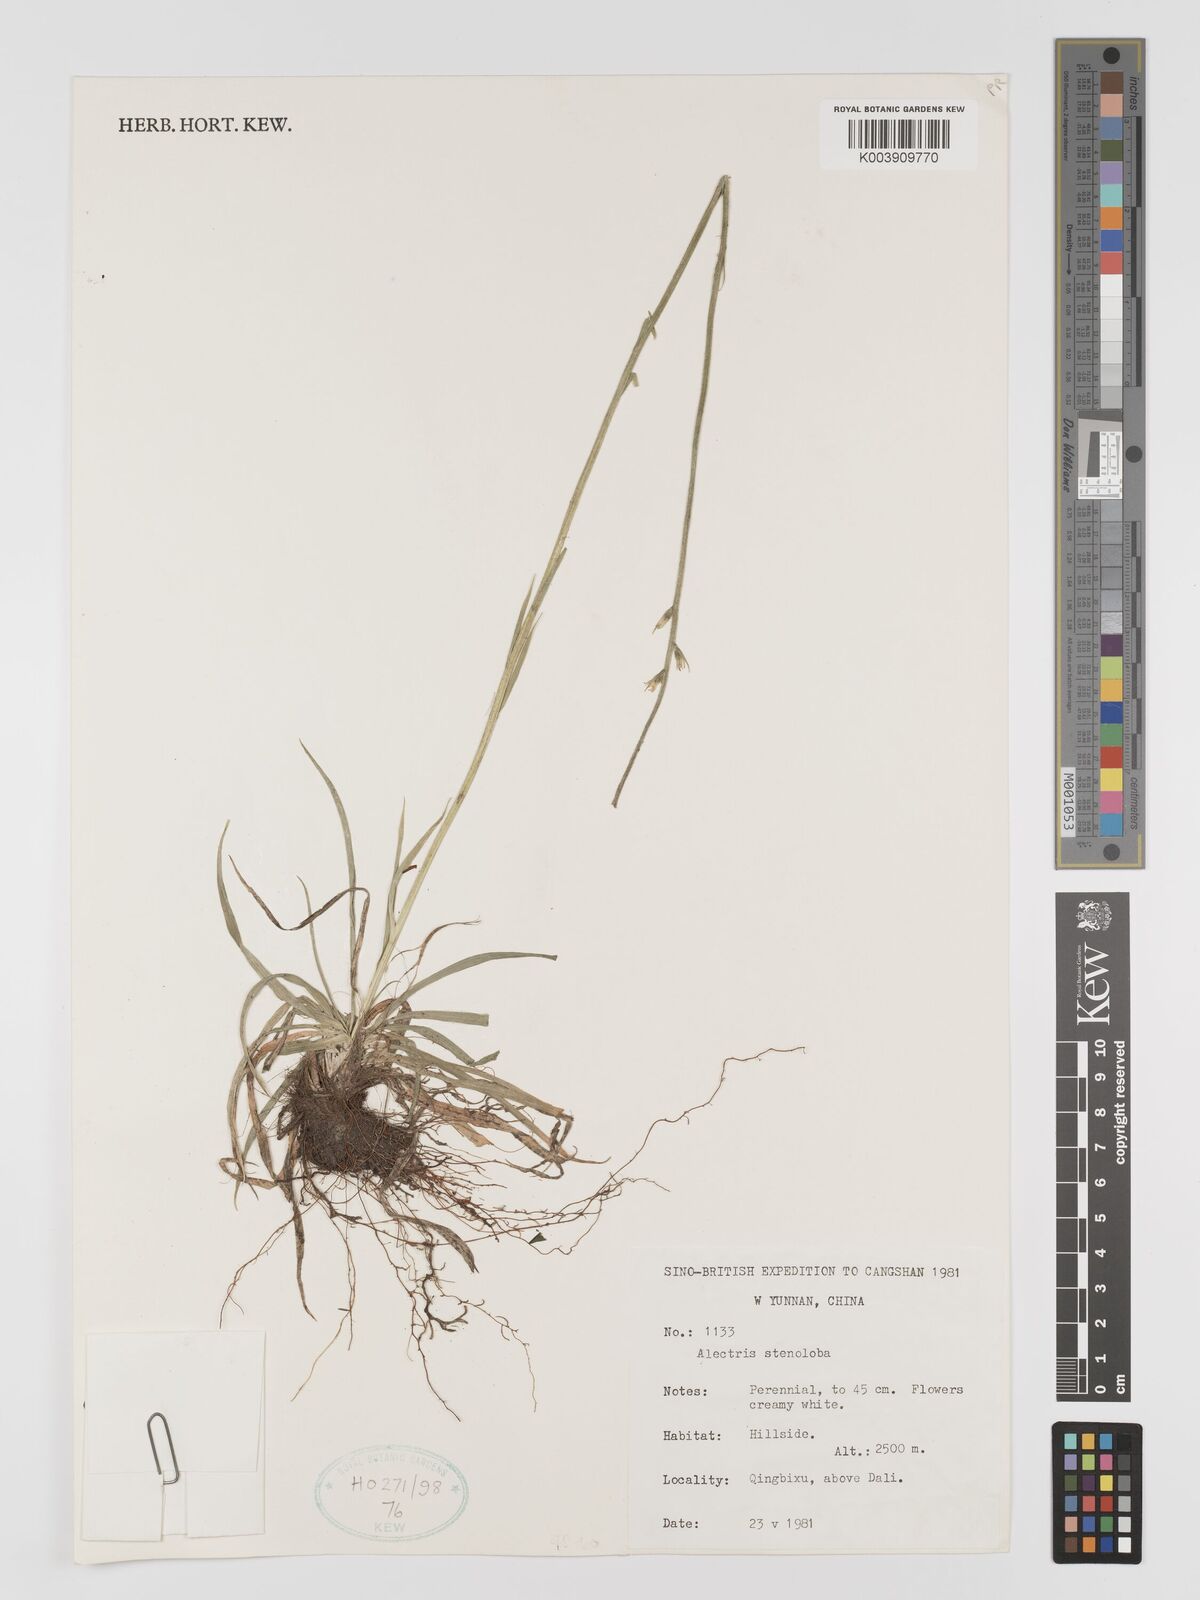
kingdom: Plantae
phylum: Tracheophyta
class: Liliopsida
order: Dioscoreales
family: Nartheciaceae
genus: Aletris
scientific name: Aletris stenoloba
